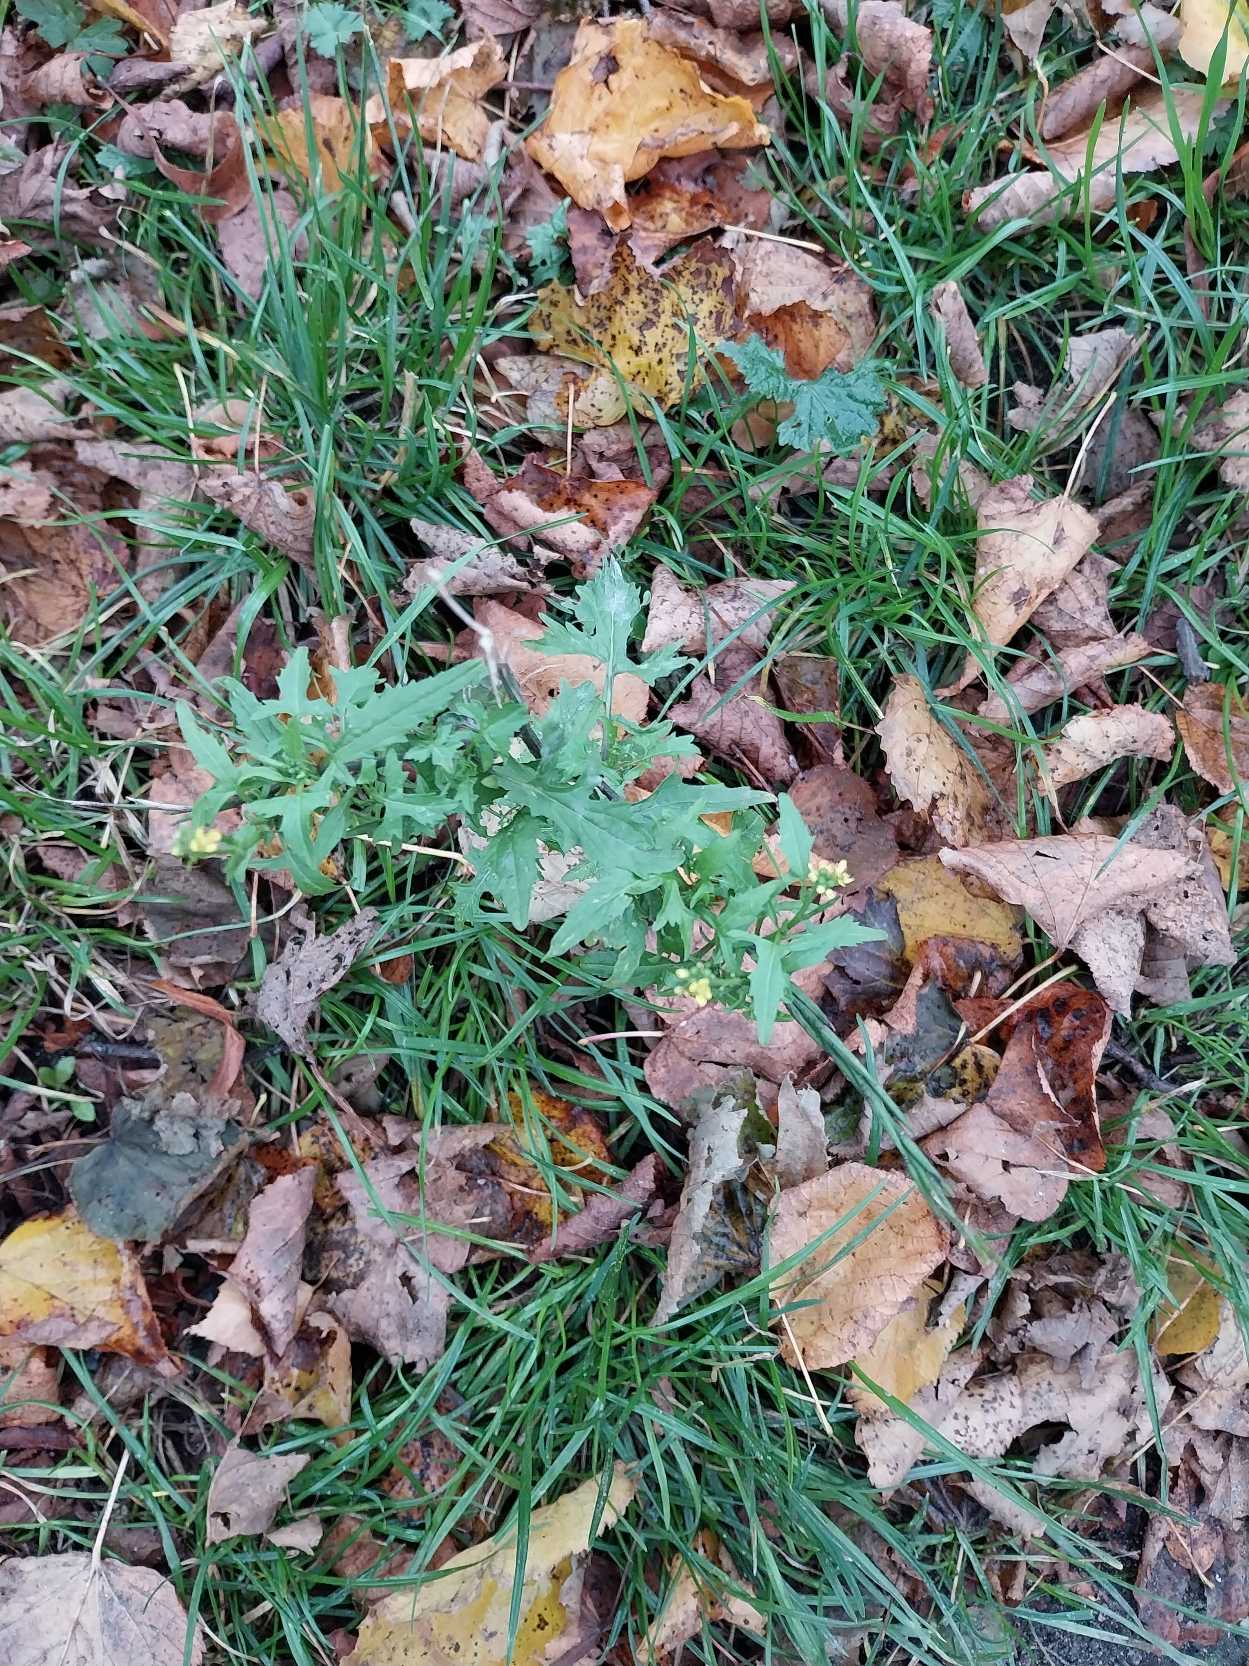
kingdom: Plantae
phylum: Tracheophyta
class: Magnoliopsida
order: Brassicales
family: Brassicaceae
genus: Sisymbrium
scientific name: Sisymbrium officinale
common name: Rank vejsennep
